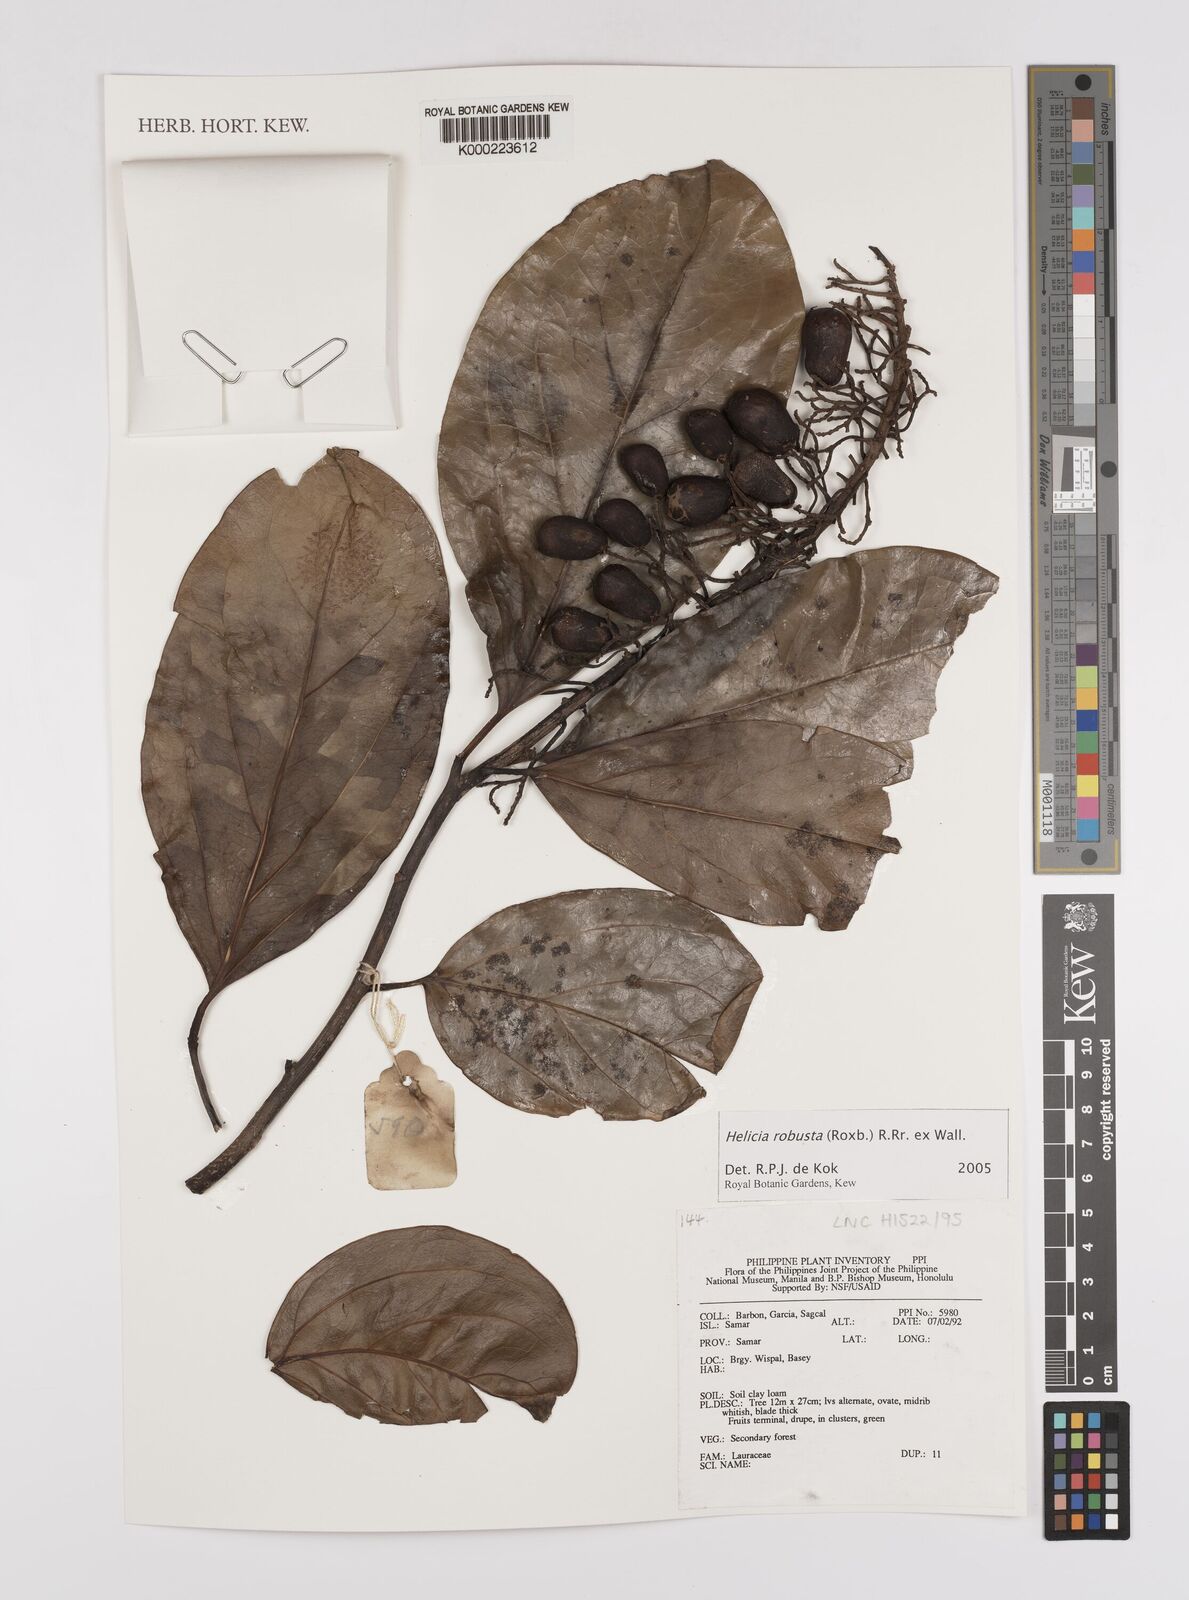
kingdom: Plantae
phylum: Tracheophyta
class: Magnoliopsida
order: Proteales
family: Proteaceae
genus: Helicia
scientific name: Helicia
